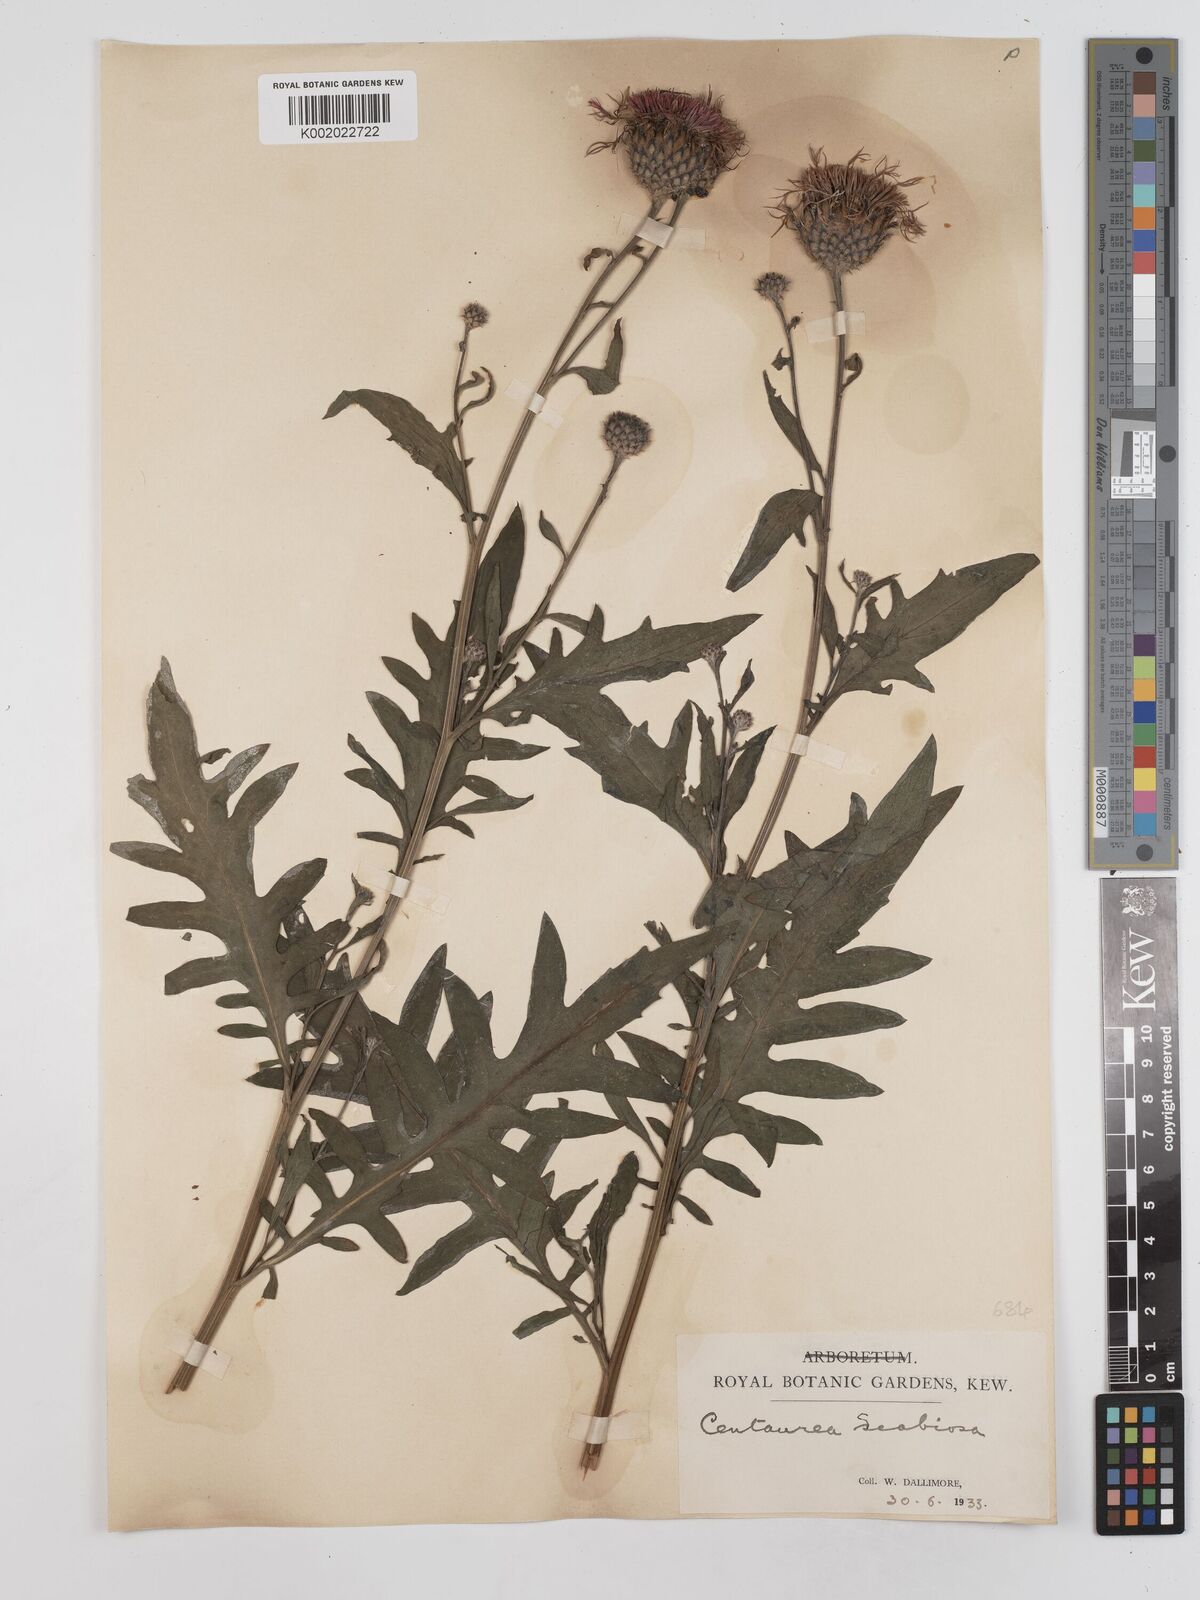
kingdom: Plantae
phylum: Tracheophyta
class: Magnoliopsida
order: Asterales
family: Asteraceae
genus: Centaurea
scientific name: Centaurea scabiosa
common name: Greater knapweed
